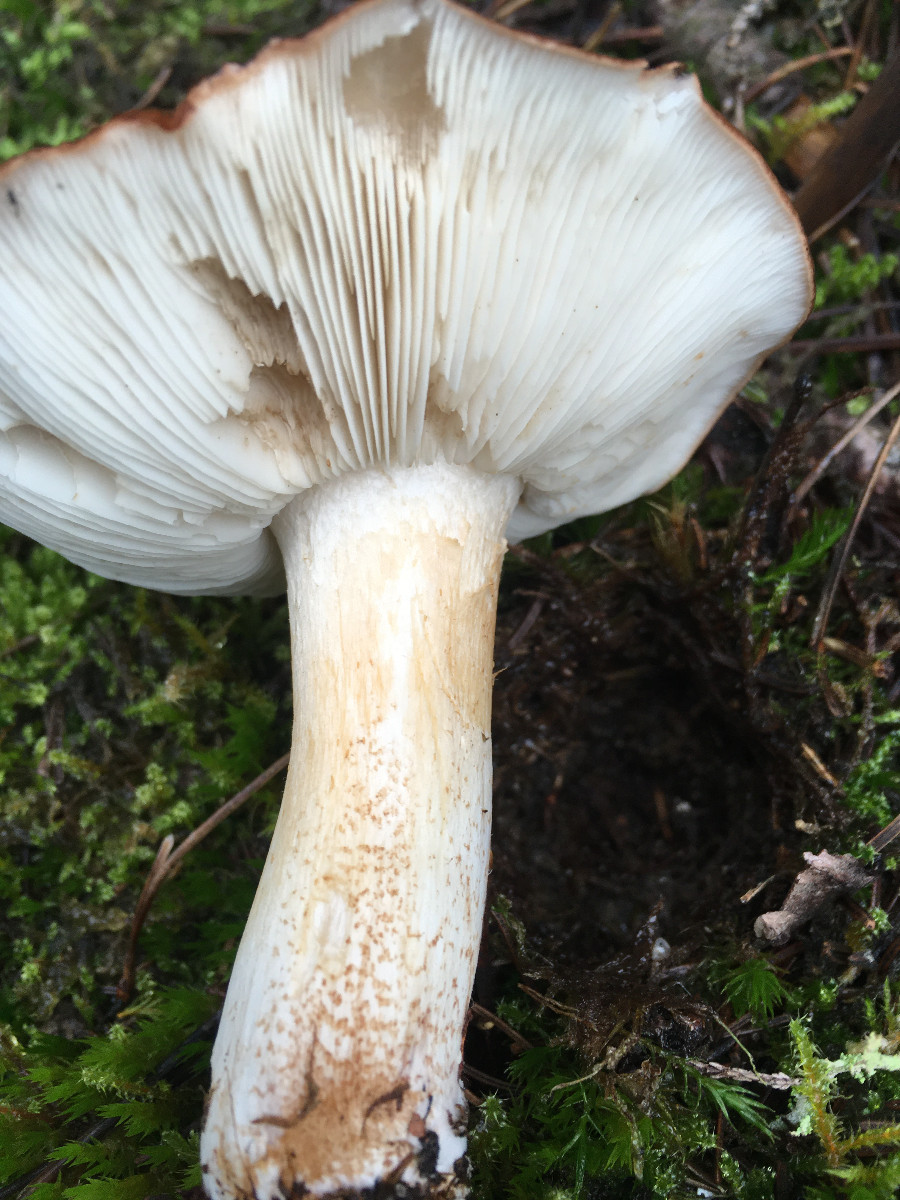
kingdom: Fungi
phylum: Basidiomycota
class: Agaricomycetes
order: Agaricales
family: Tricholomataceae
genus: Tricholoma
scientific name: Tricholoma pessundatum
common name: dråbeplettet ridderhat
